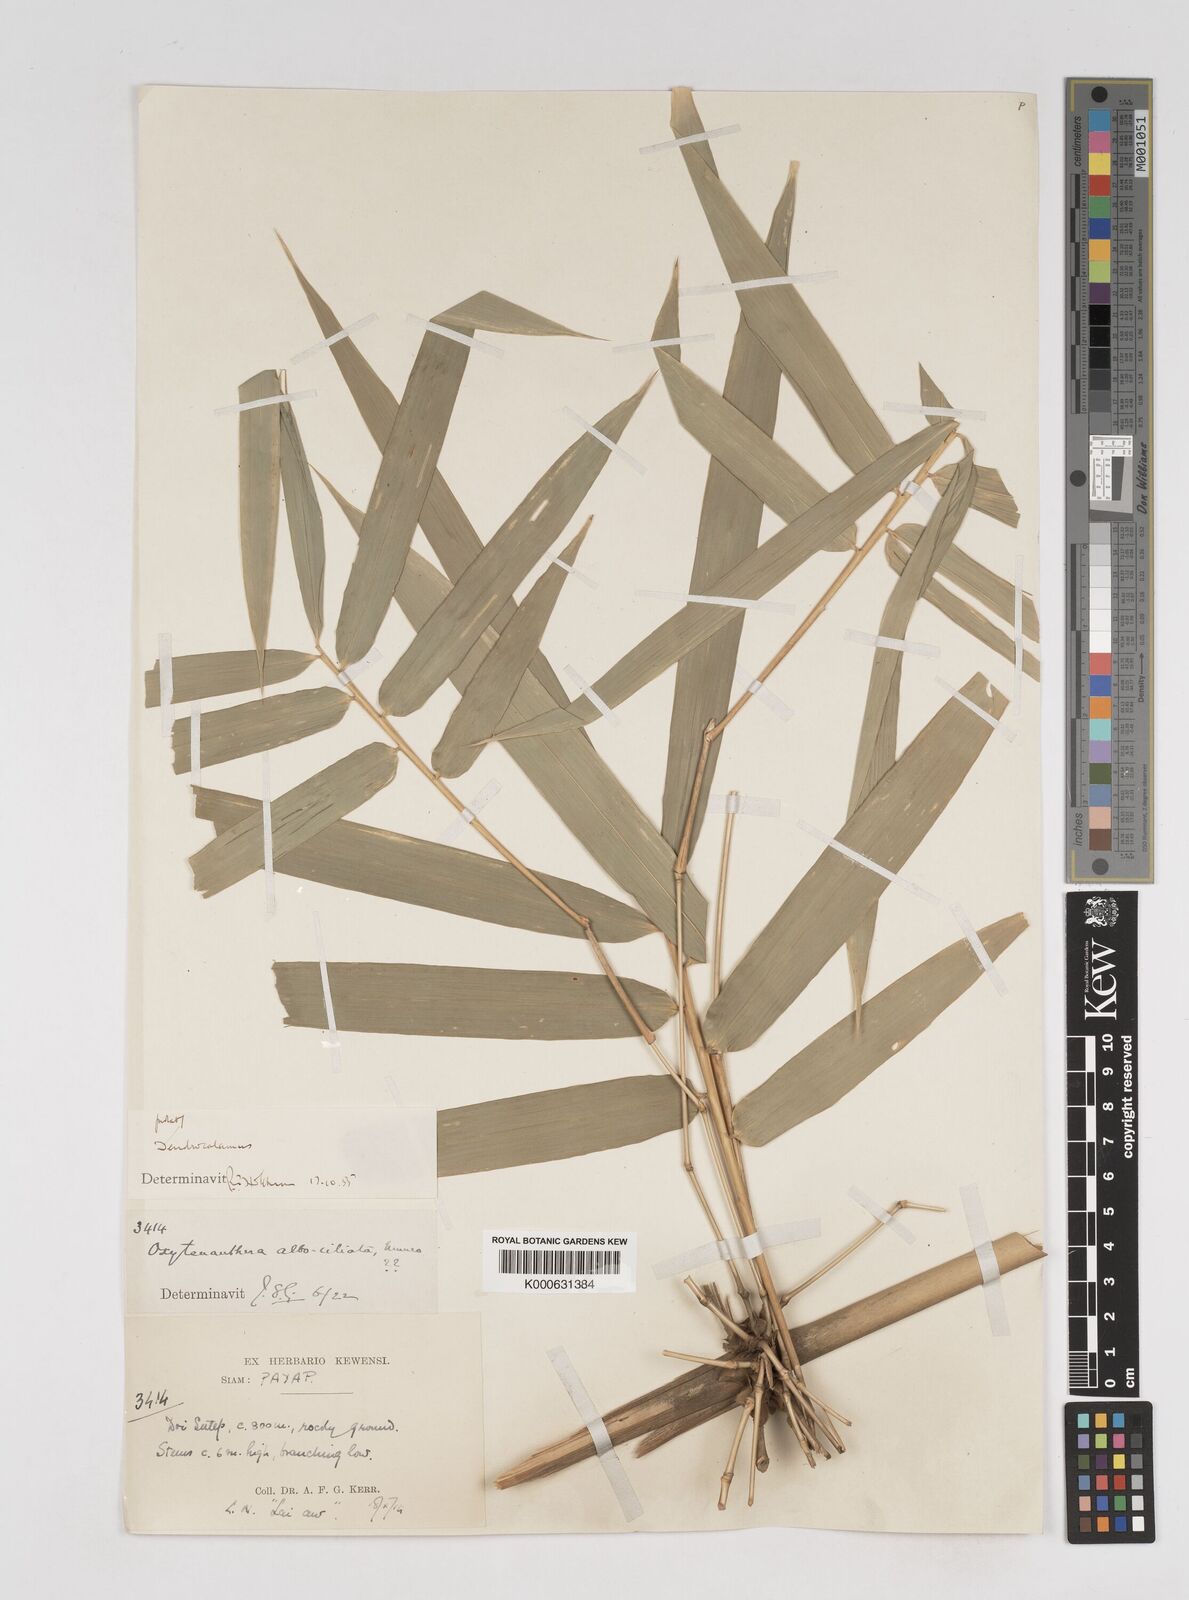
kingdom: Plantae
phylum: Tracheophyta
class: Liliopsida
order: Poales
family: Poaceae
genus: Dendrocalamus
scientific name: Dendrocalamus
